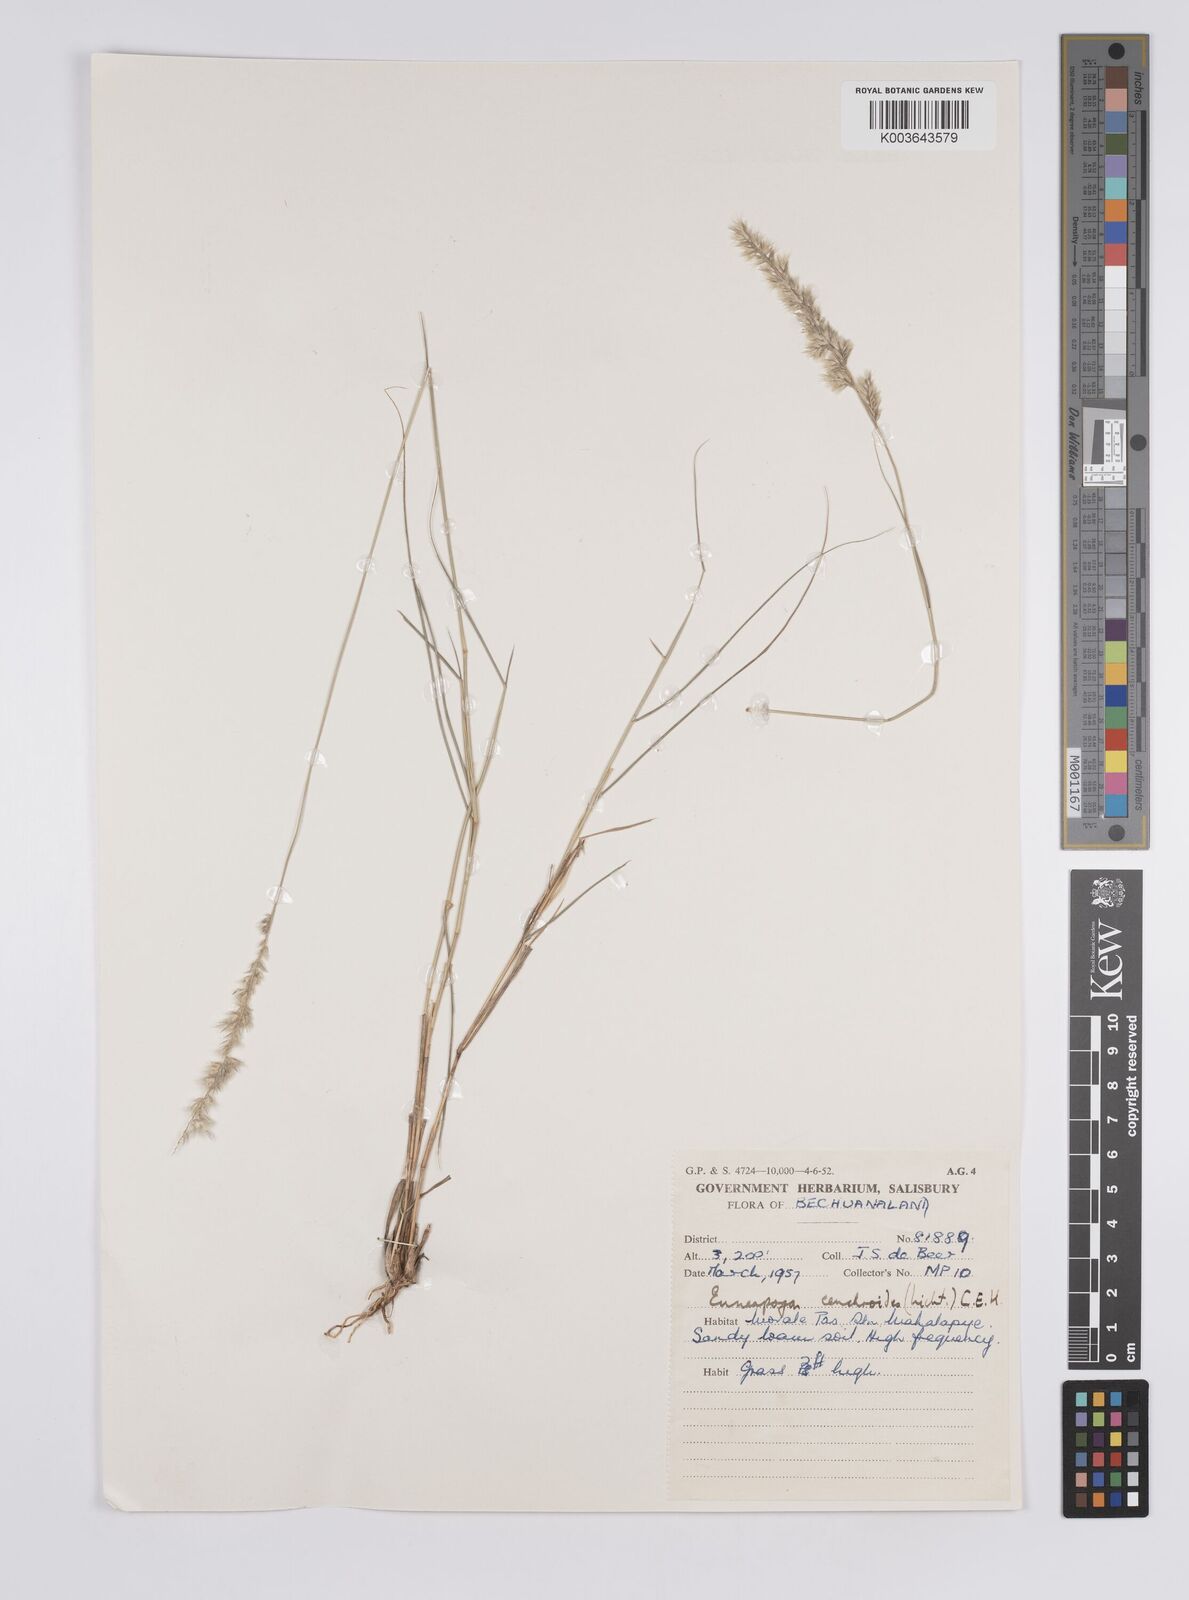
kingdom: Plantae
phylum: Tracheophyta
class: Liliopsida
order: Poales
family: Poaceae
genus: Enneapogon
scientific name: Enneapogon scoparius
